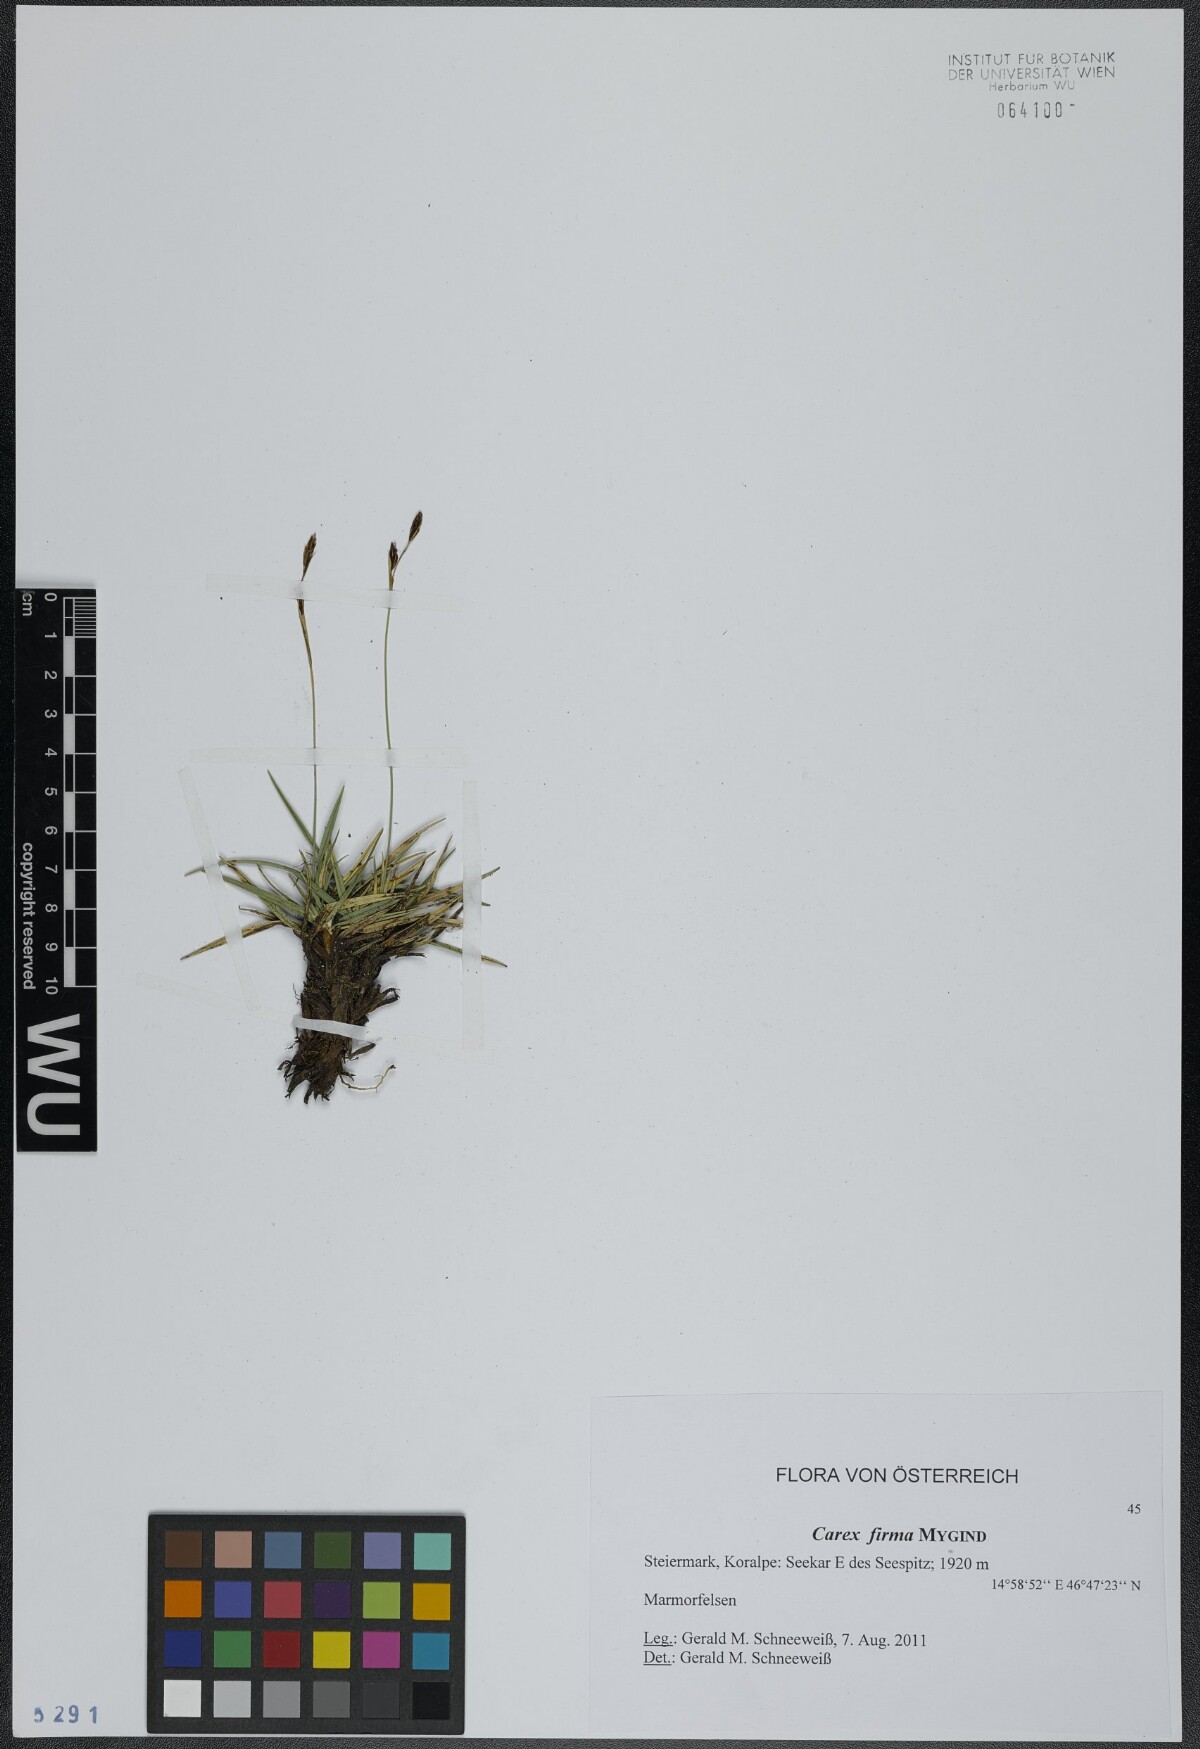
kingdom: Plantae
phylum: Tracheophyta
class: Liliopsida
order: Poales
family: Cyperaceae
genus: Carex
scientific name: Carex firma
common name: Dwarf pillow sedge
